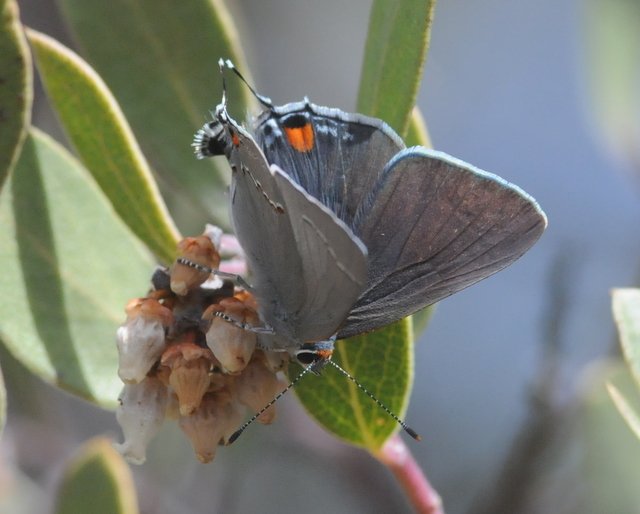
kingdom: Animalia
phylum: Arthropoda
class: Insecta
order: Lepidoptera
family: Lycaenidae
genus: Strymon
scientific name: Strymon melinus
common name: Gray Hairstreak
